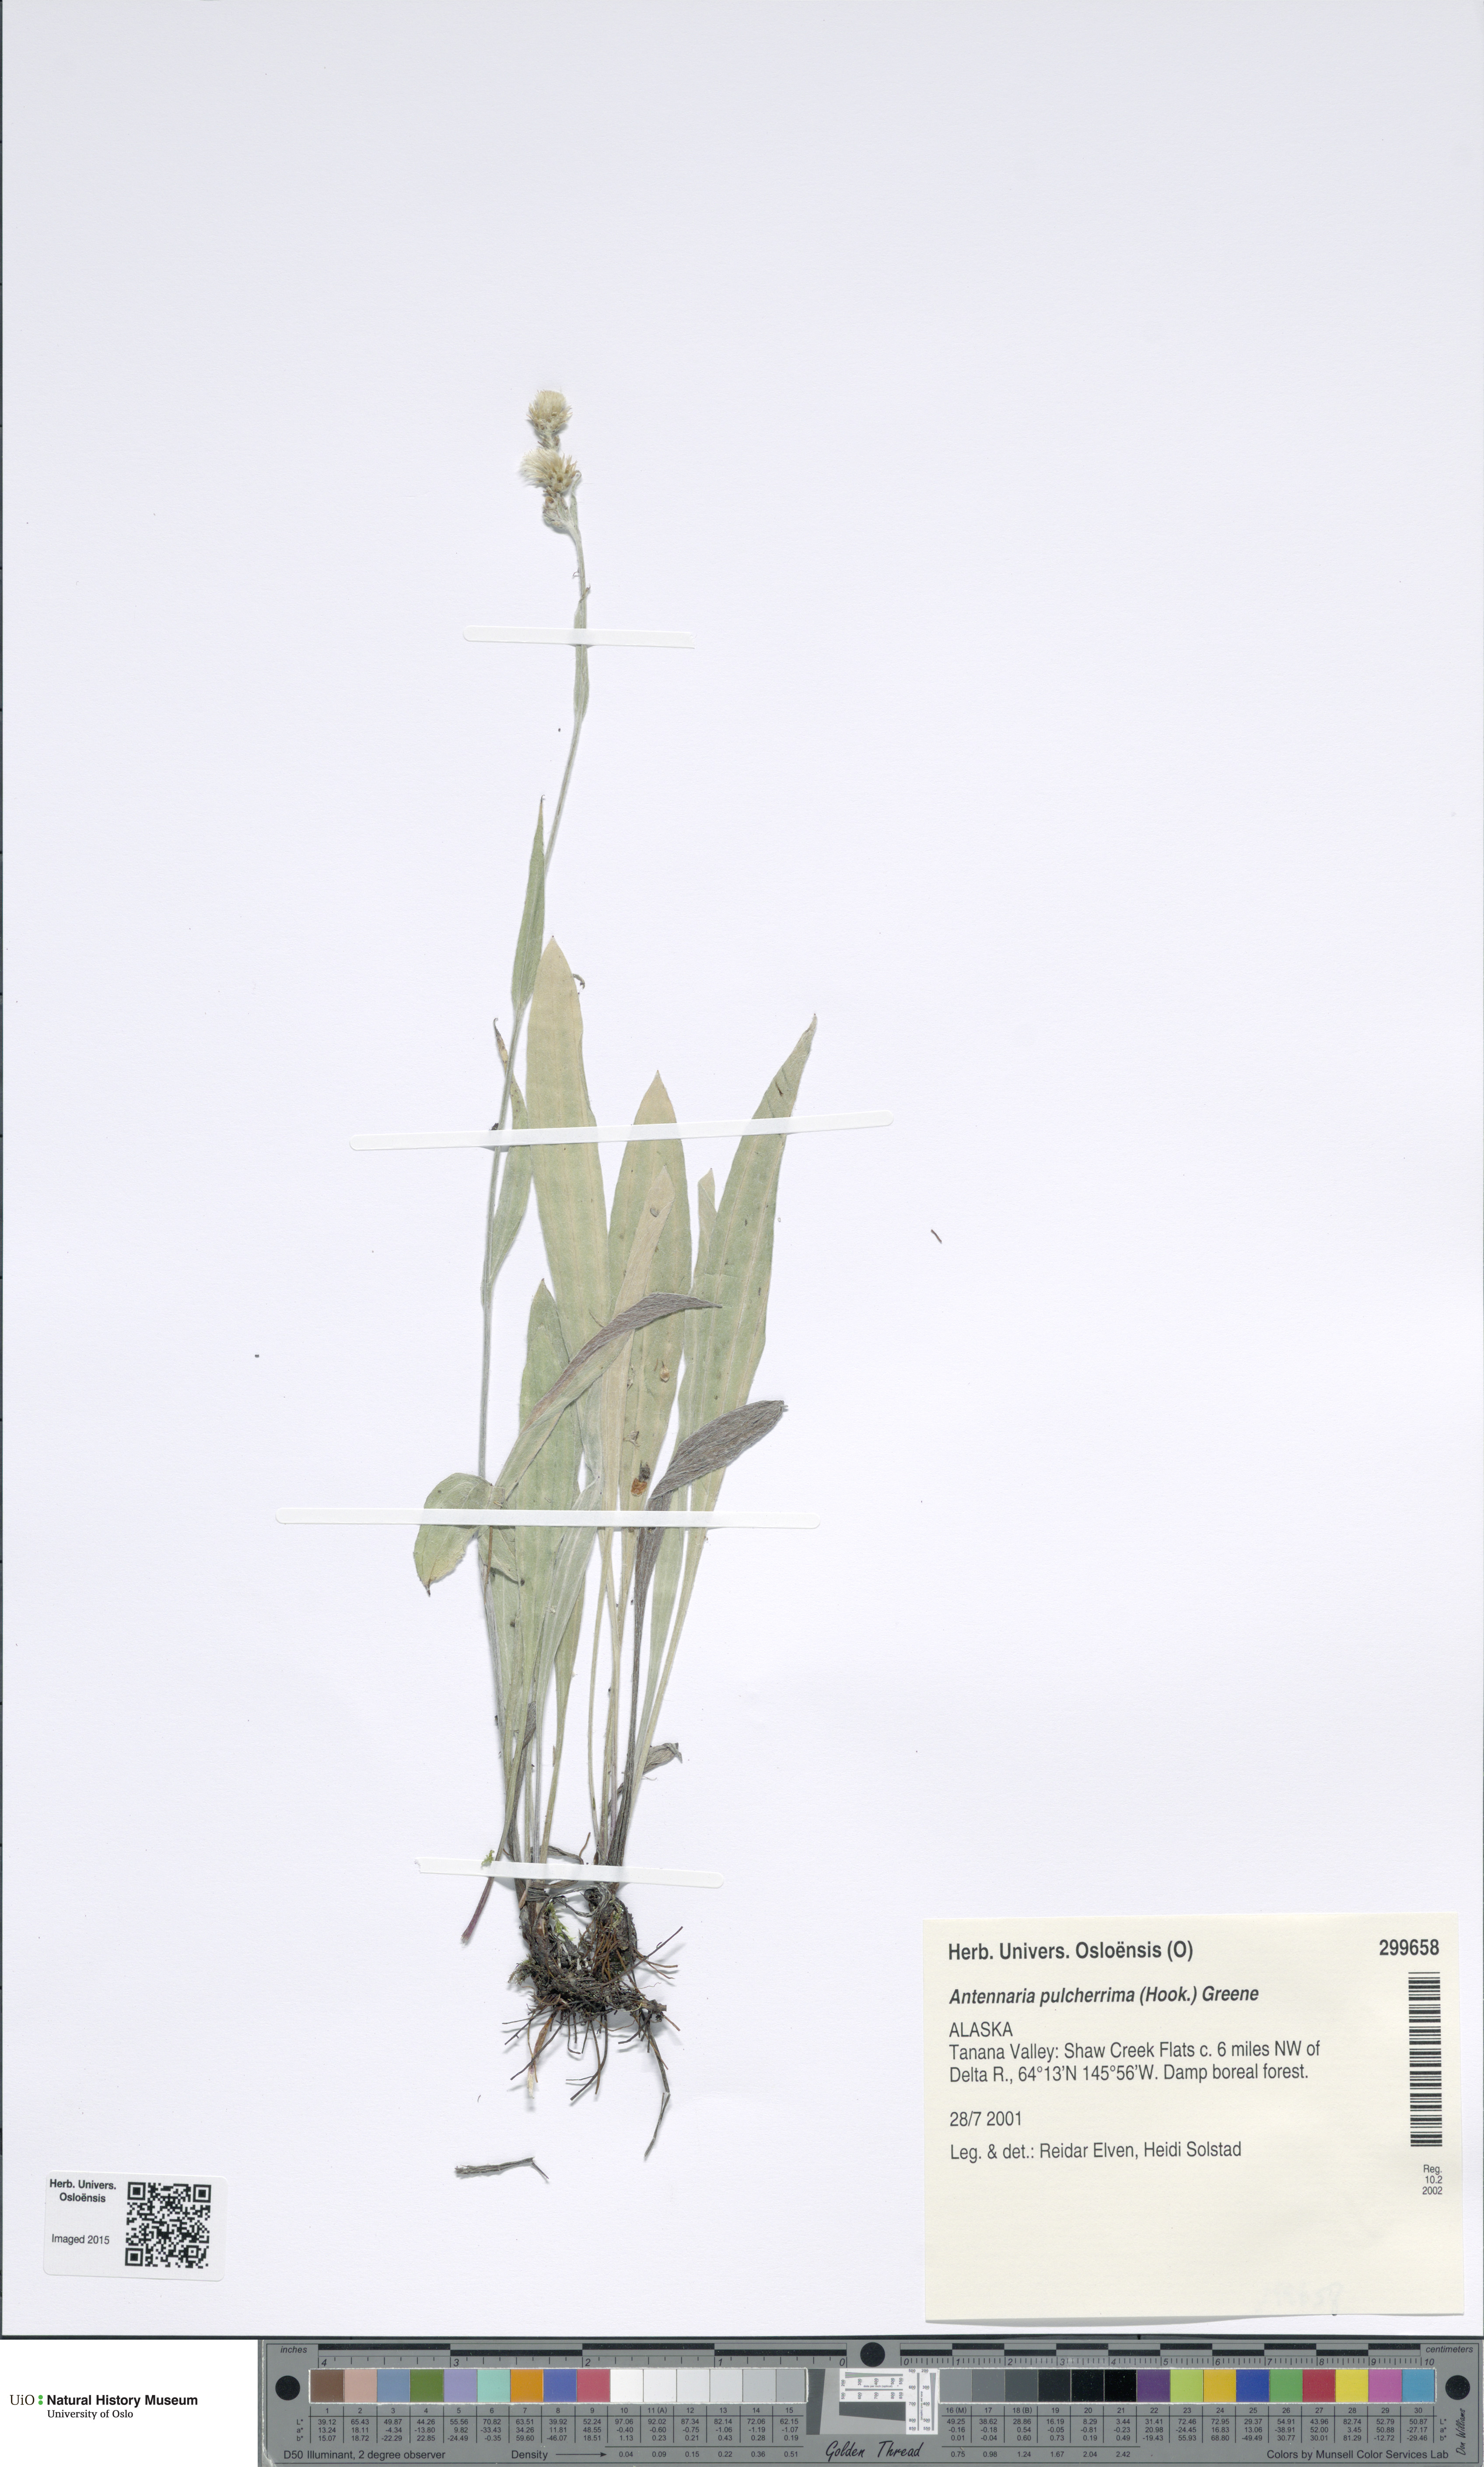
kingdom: Plantae
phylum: Tracheophyta
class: Magnoliopsida
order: Asterales
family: Asteraceae
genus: Antennaria
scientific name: Antennaria pulcherrima
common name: Handsome pussytoes
